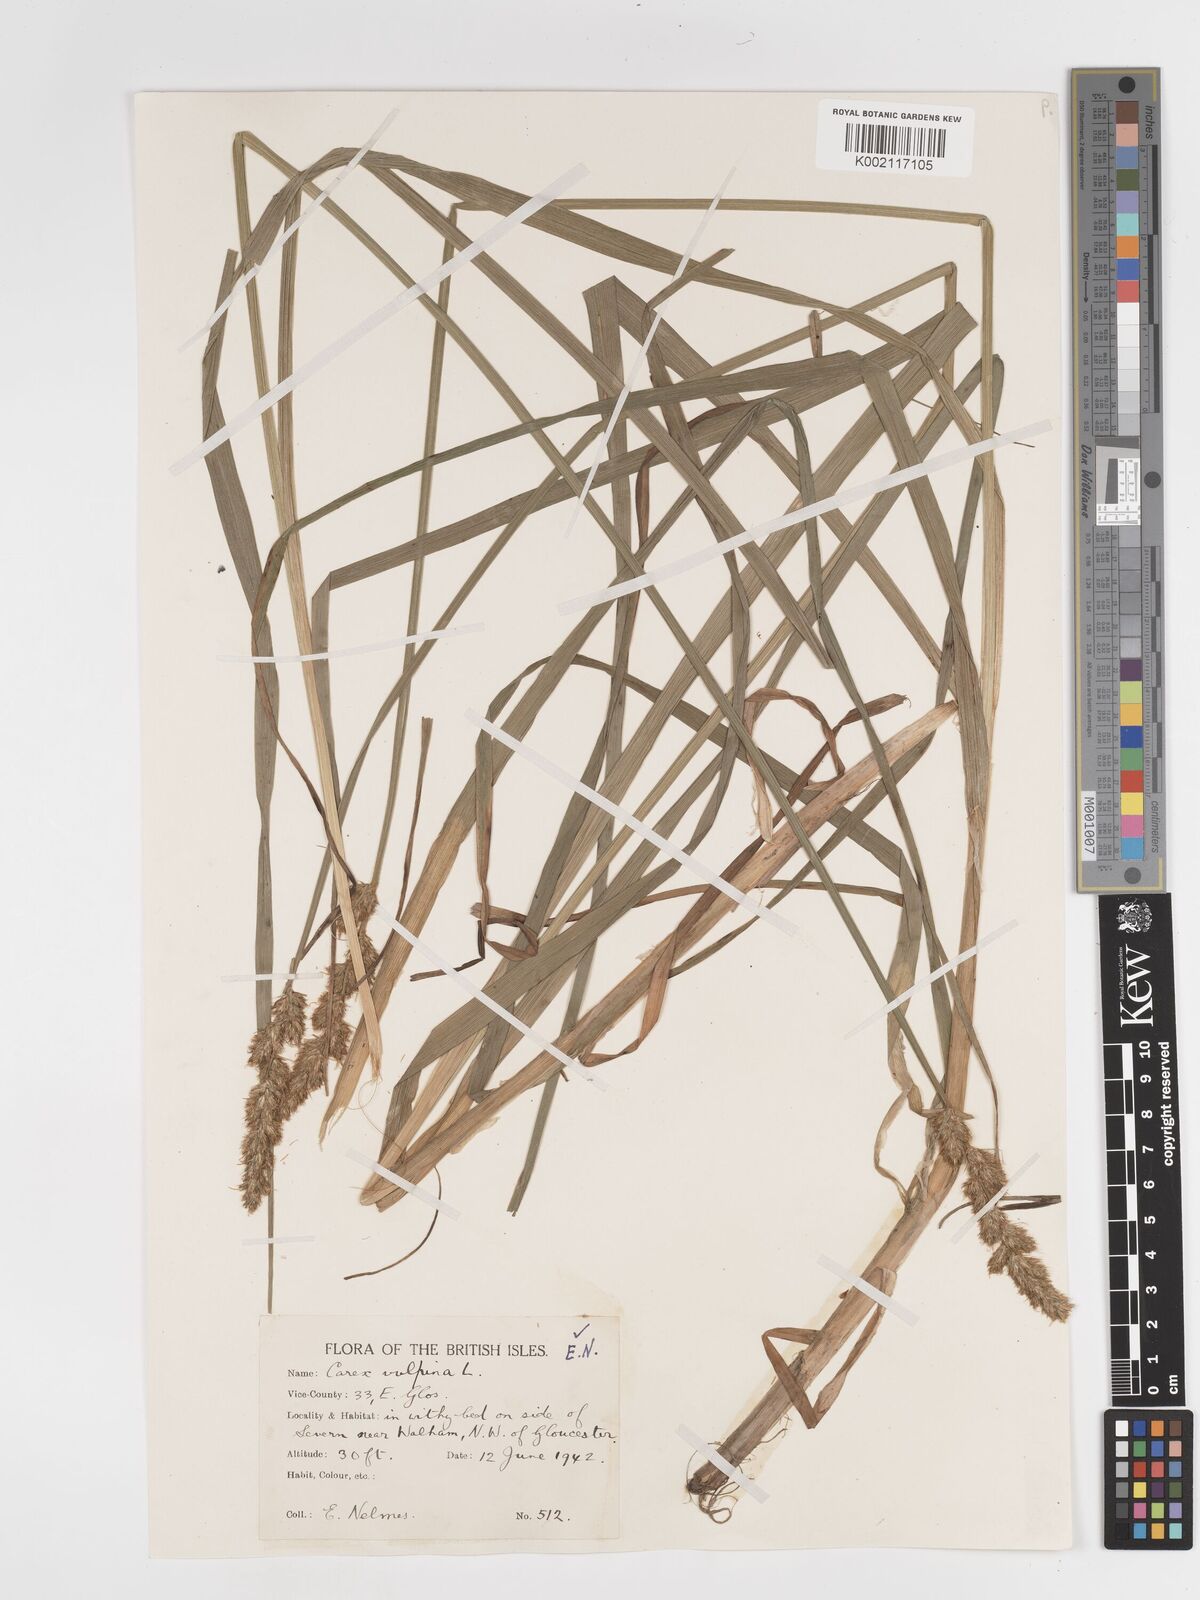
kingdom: Plantae
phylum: Tracheophyta
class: Liliopsida
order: Poales
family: Cyperaceae
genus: Carex
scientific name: Carex vulpina
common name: True fox-sedge
